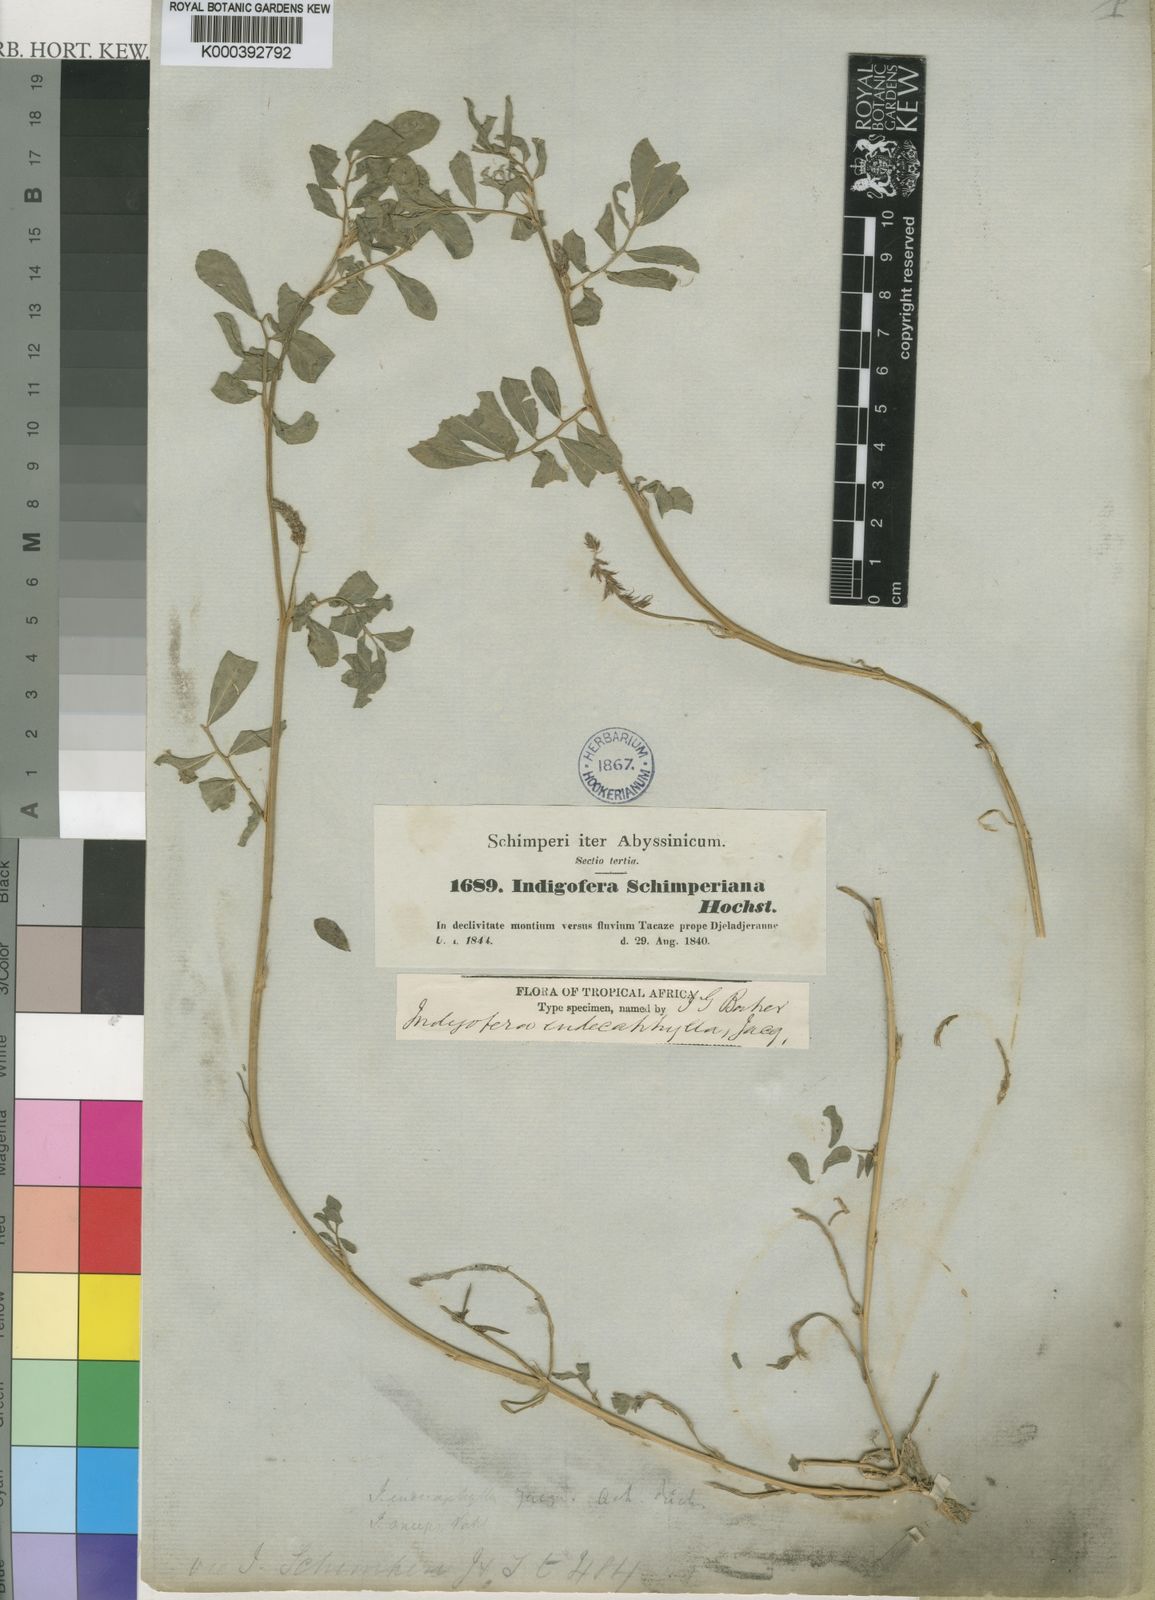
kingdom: Plantae
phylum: Tracheophyta
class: Magnoliopsida
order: Fabales
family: Fabaceae
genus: Indigofera
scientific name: Indigofera spicata
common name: Creeping indigo
